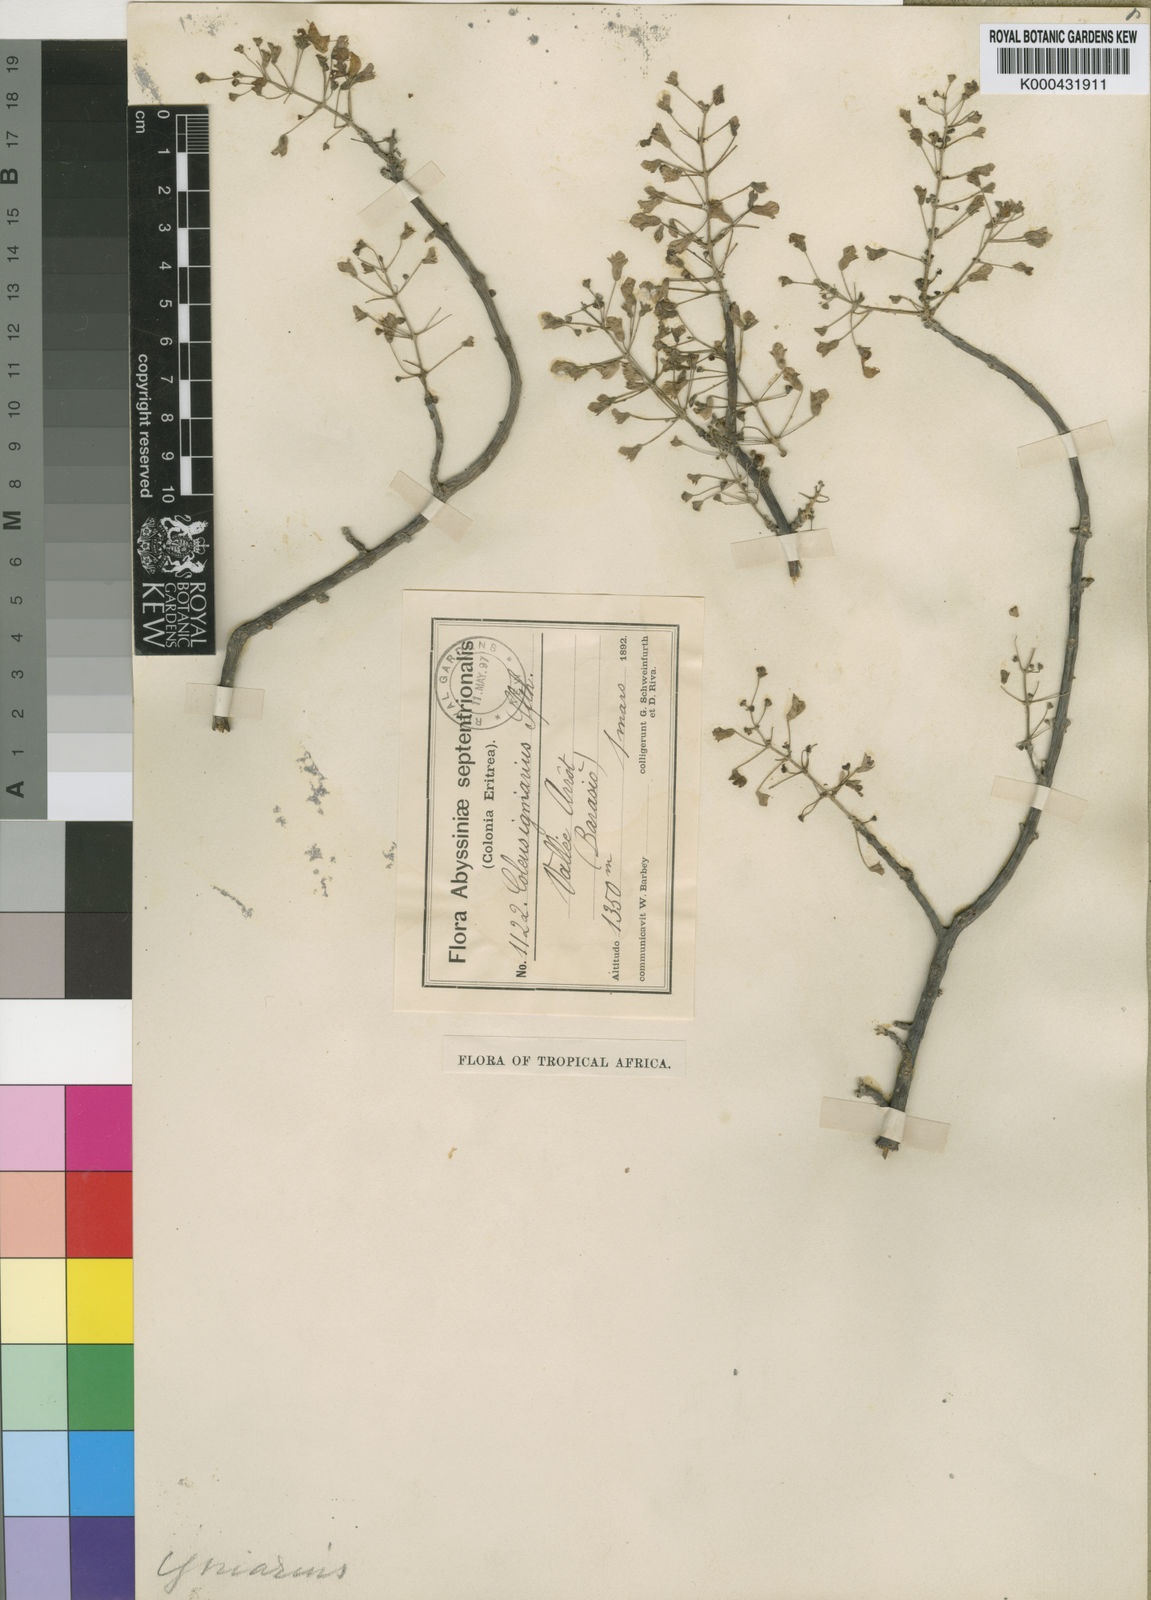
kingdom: Plantae
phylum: Tracheophyta
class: Magnoliopsida
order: Lamiales
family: Lamiaceae
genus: Coleus
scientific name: Coleus igniarius
